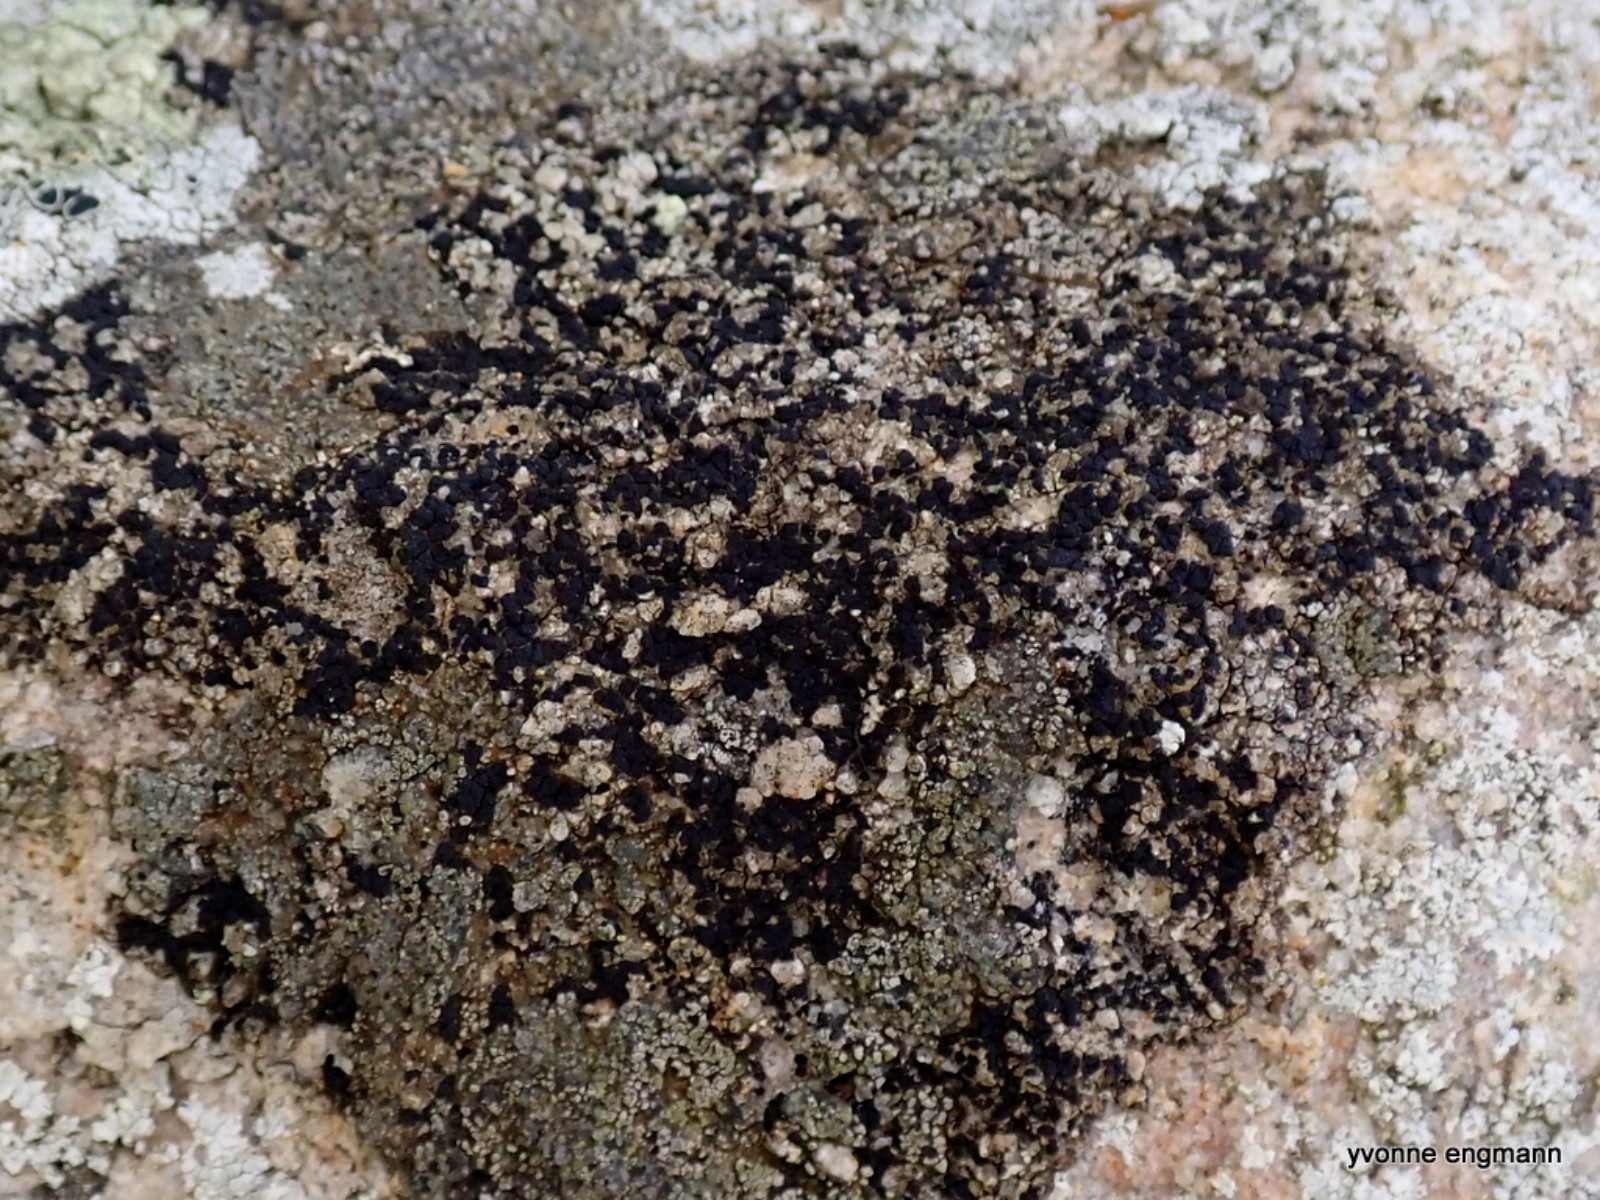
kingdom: Fungi
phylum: Ascomycota
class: Lecanoromycetes
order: Acarosporales
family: Acarosporaceae
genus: Acarospora
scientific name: Acarospora privigna
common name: sort foldekantlav
